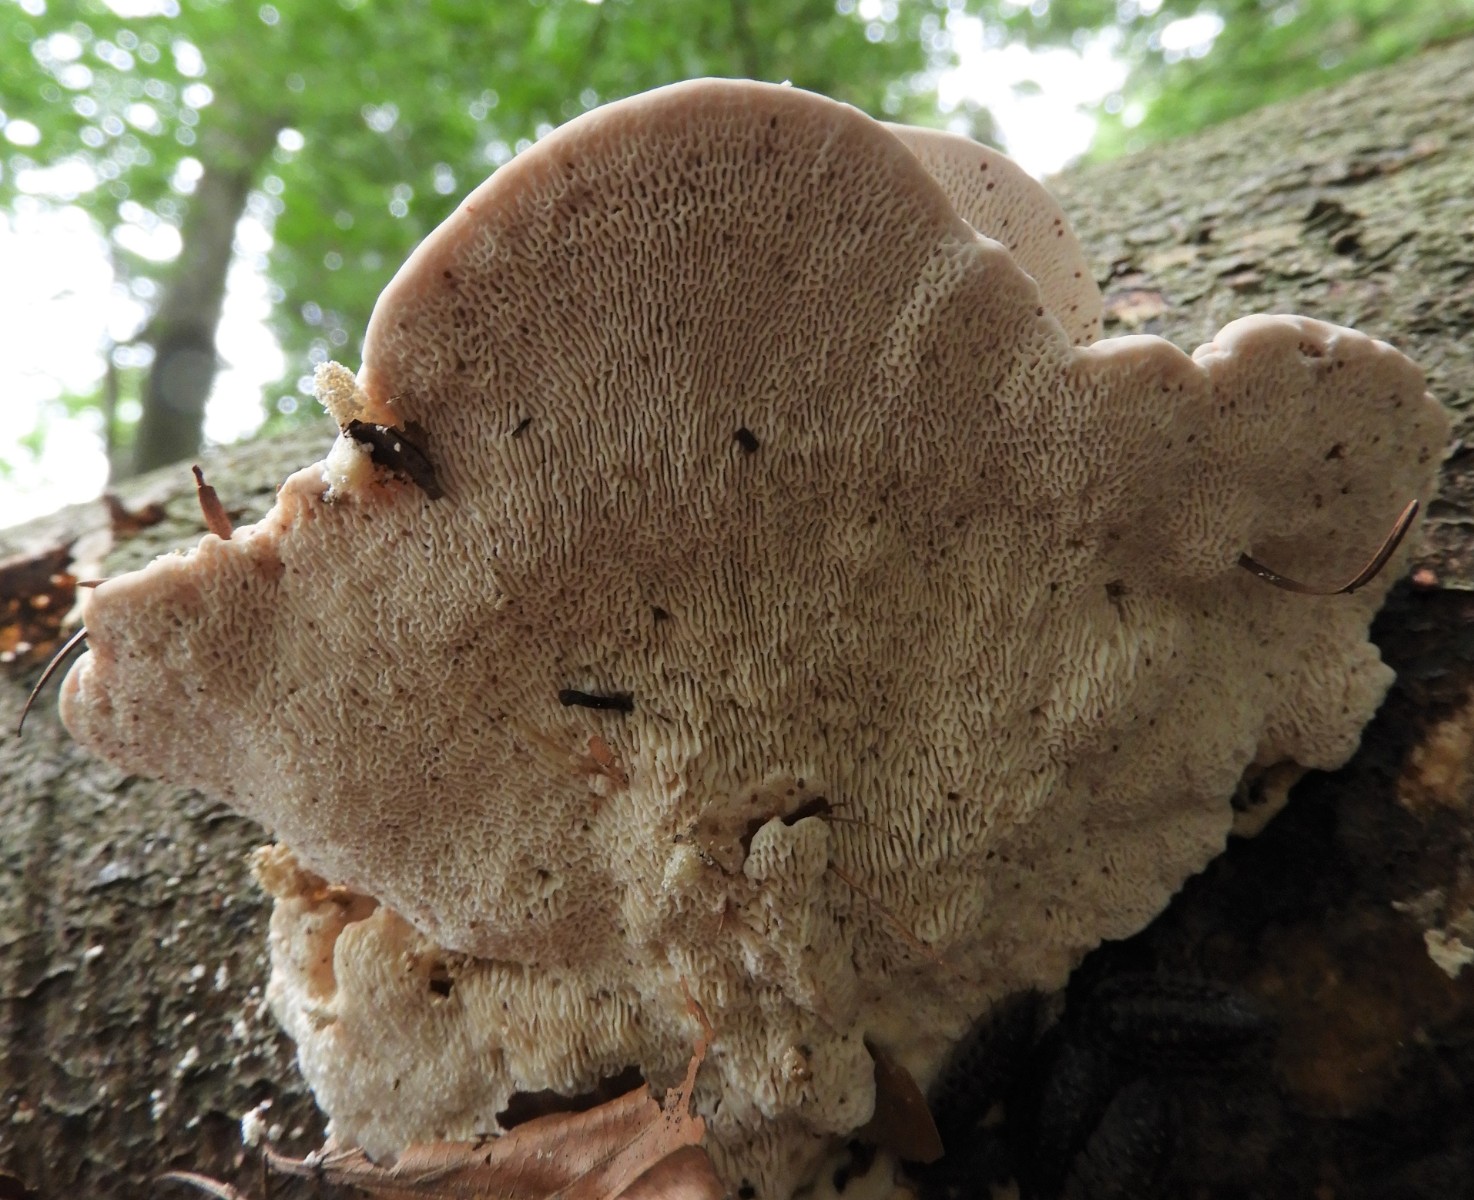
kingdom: Fungi
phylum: Basidiomycota
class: Agaricomycetes
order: Polyporales
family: Polyporaceae
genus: Trametes
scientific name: Trametes gibbosa
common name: puklet læderporesvamp
